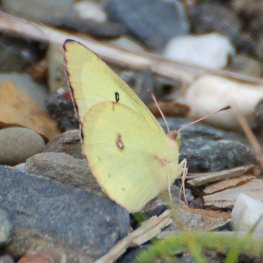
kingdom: Animalia
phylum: Arthropoda
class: Insecta
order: Lepidoptera
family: Pieridae
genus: Colias
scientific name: Colias philodice
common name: Clouded Sulphur
